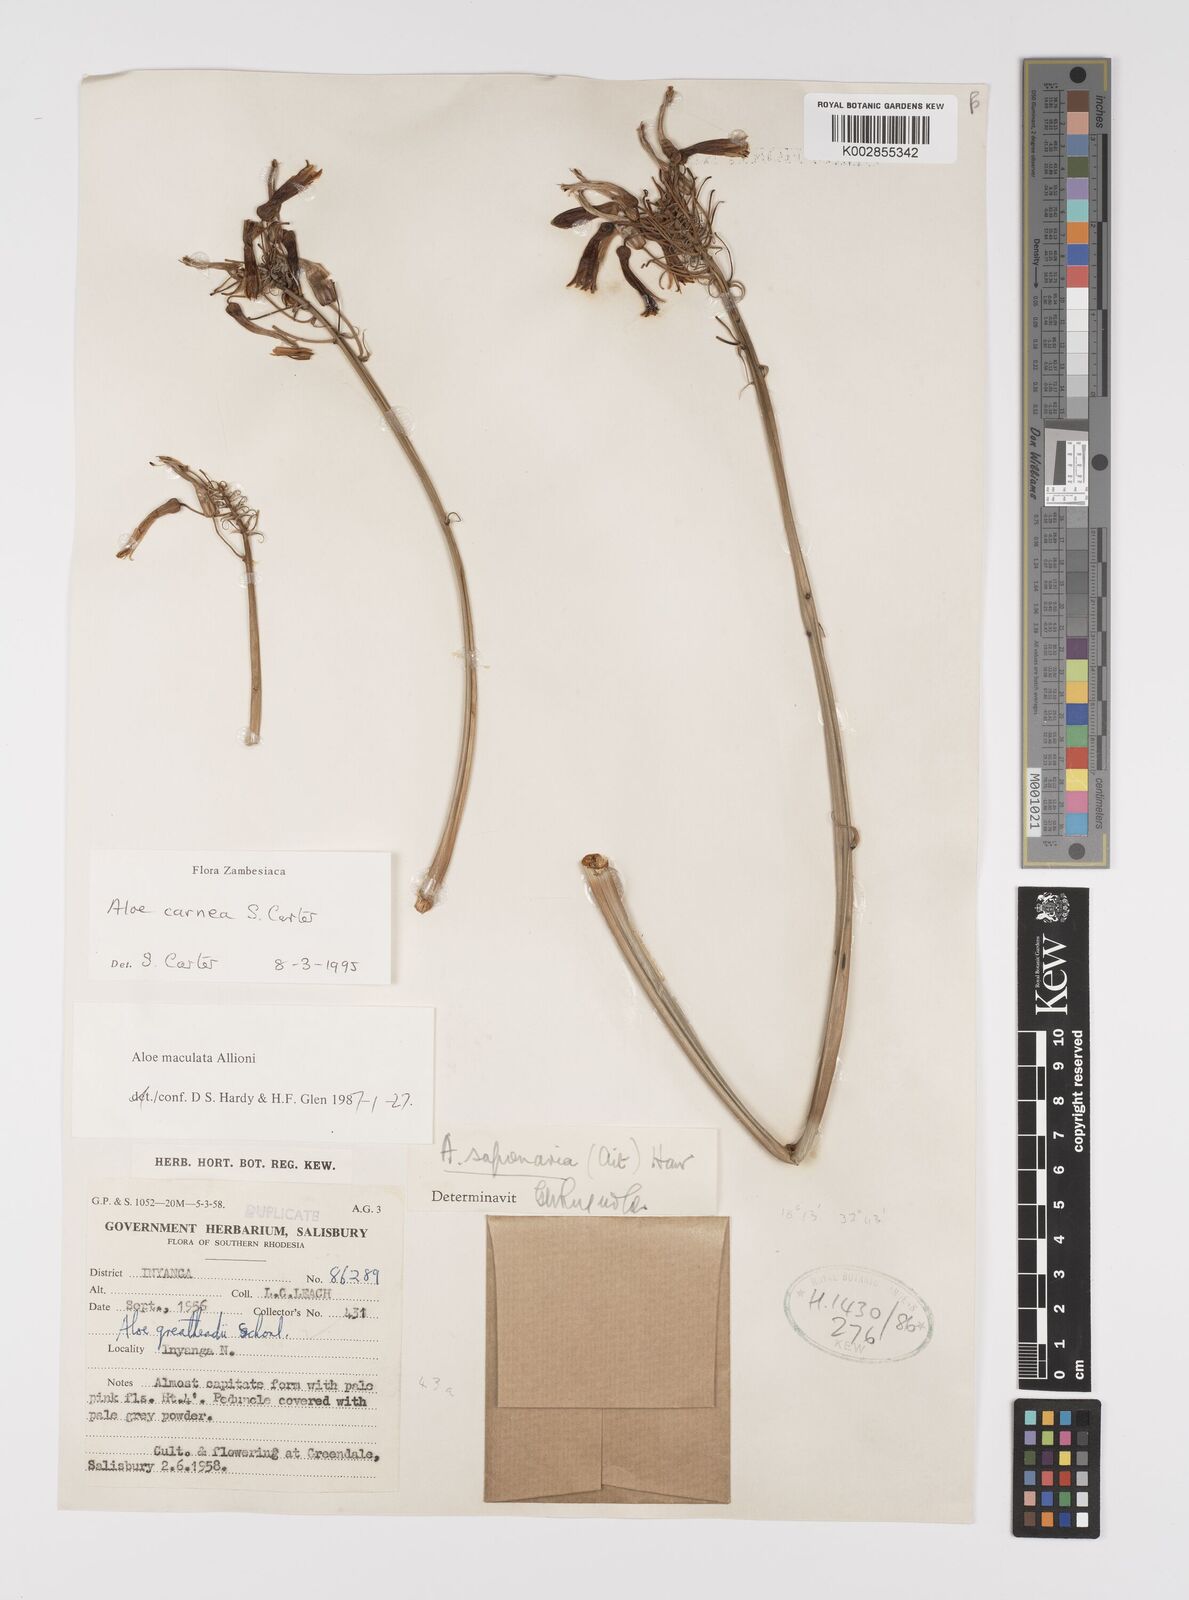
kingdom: Plantae
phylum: Tracheophyta
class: Liliopsida
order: Asparagales
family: Asphodelaceae
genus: Aloe
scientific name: Aloe carnea
